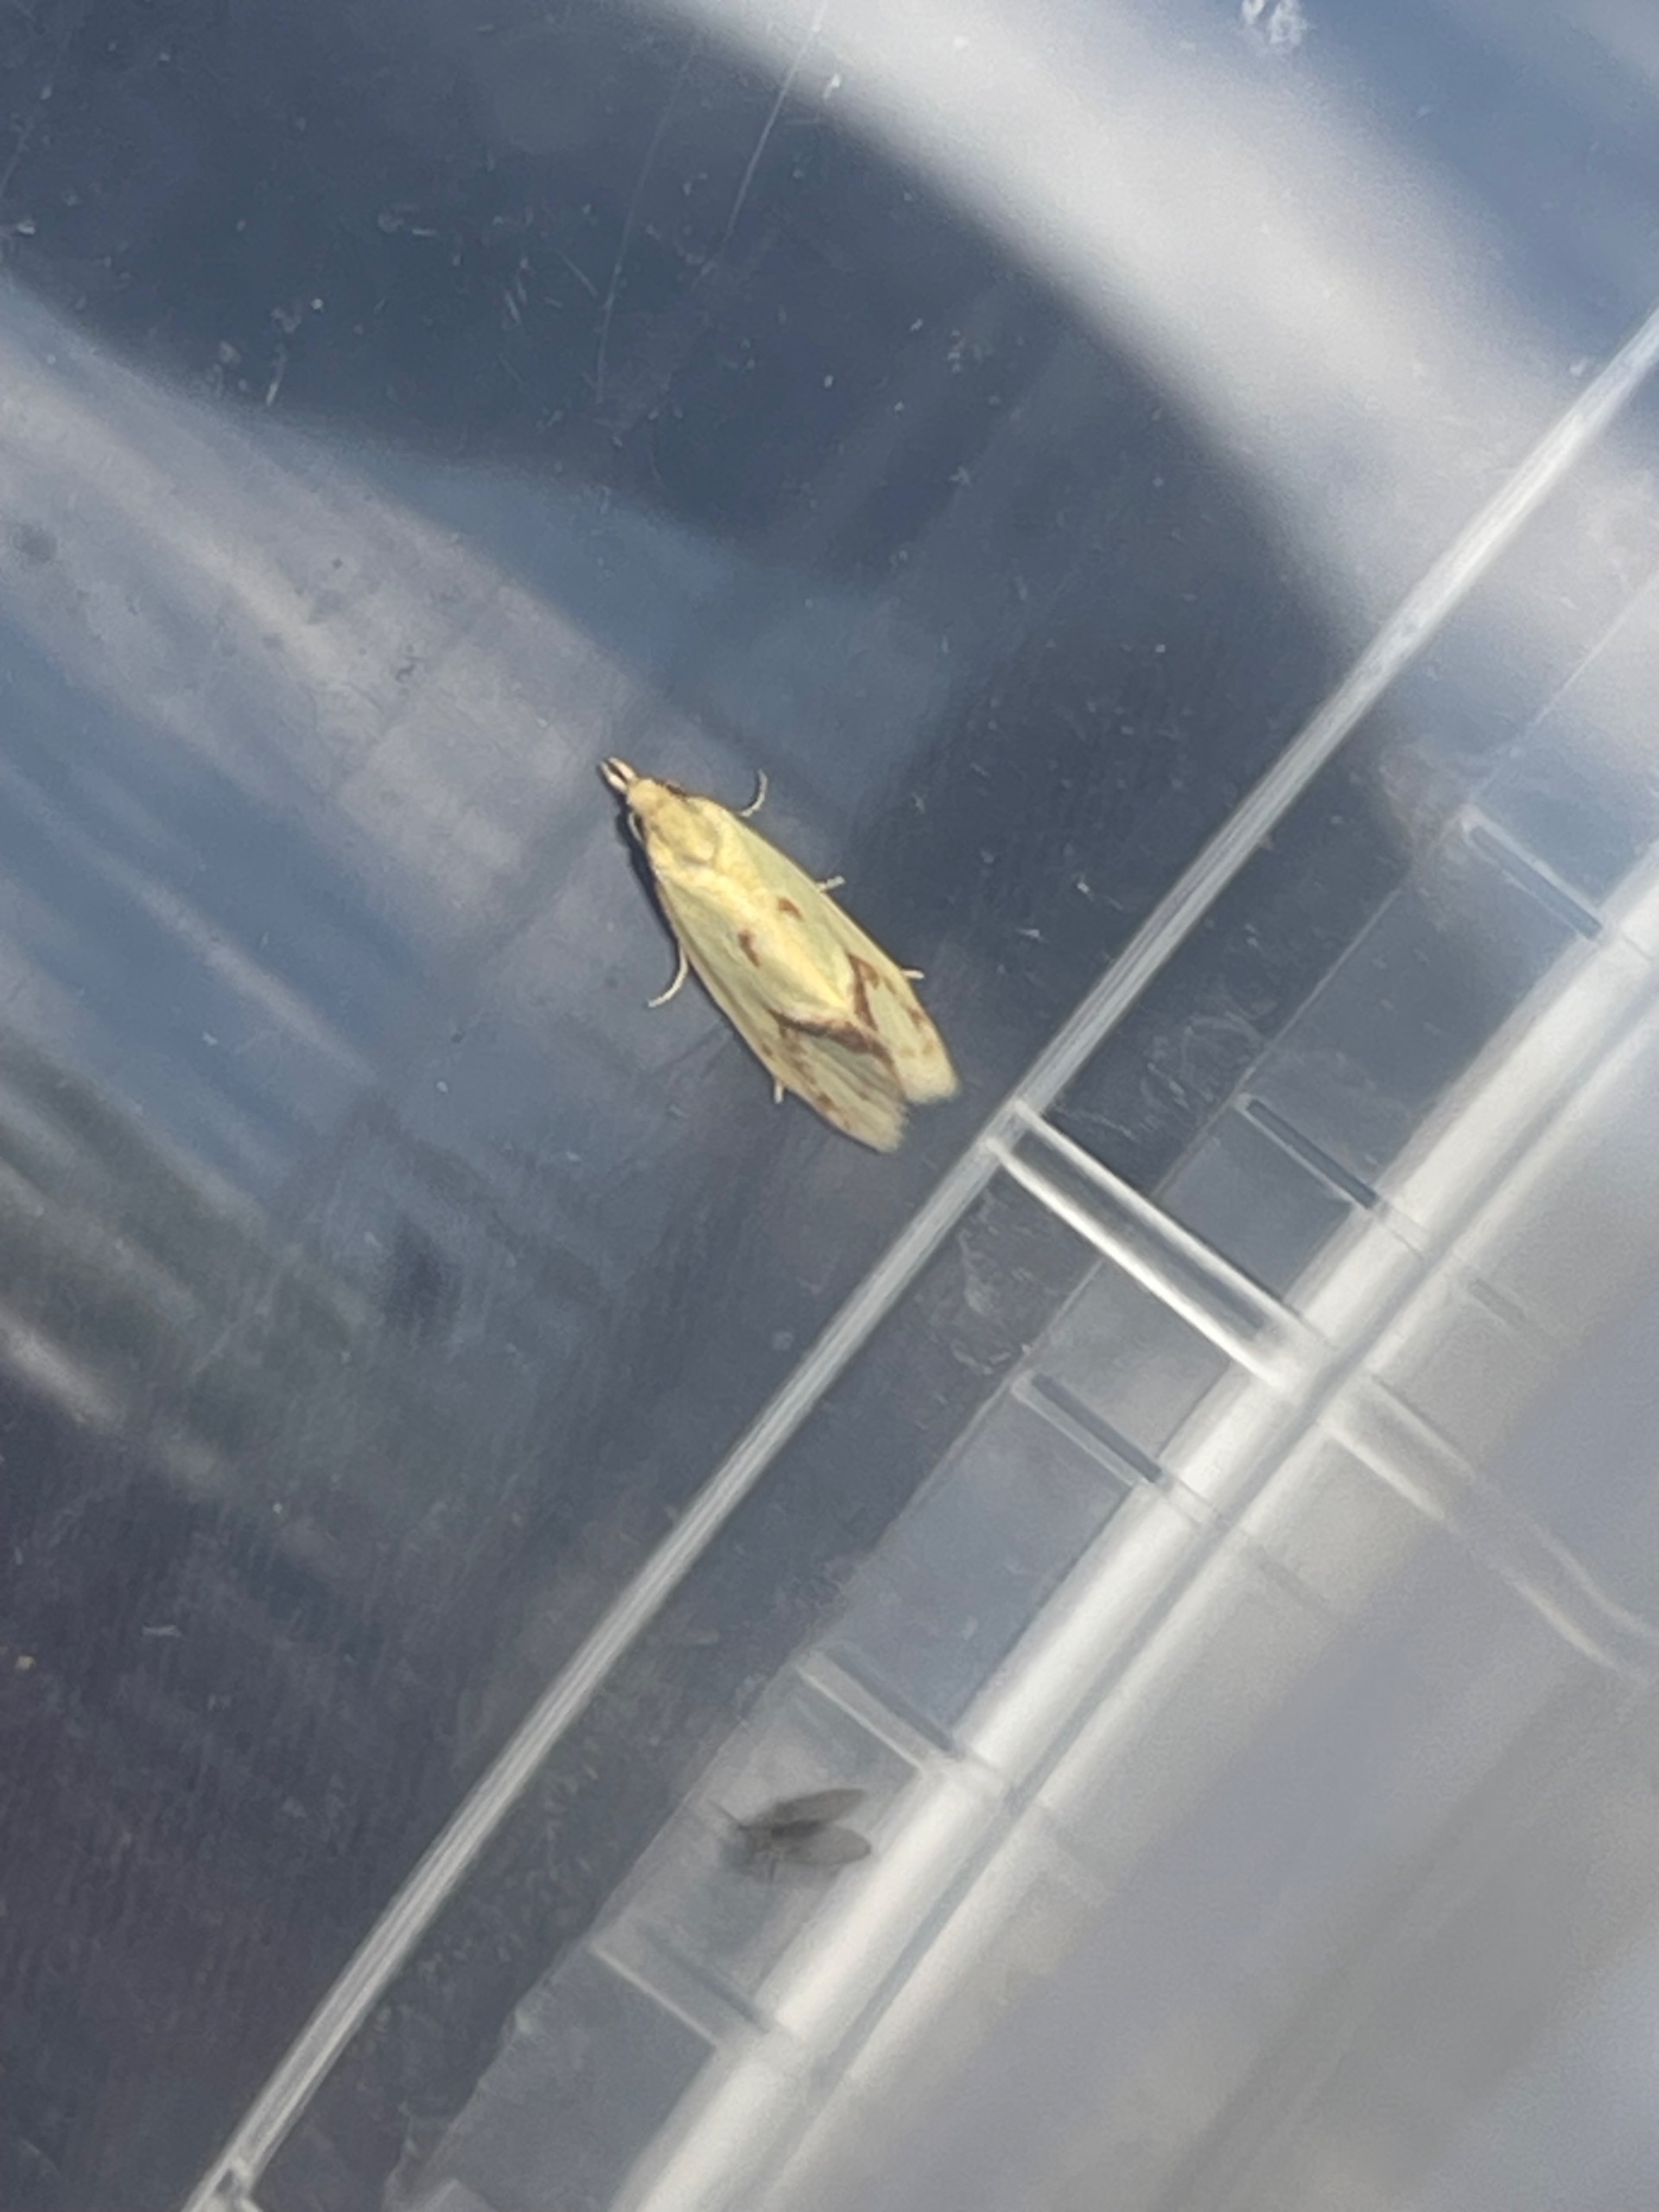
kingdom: Animalia
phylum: Arthropoda
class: Insecta
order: Lepidoptera
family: Tortricidae
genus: Agapeta
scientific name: Agapeta hamana
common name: Tidselgulvikler
